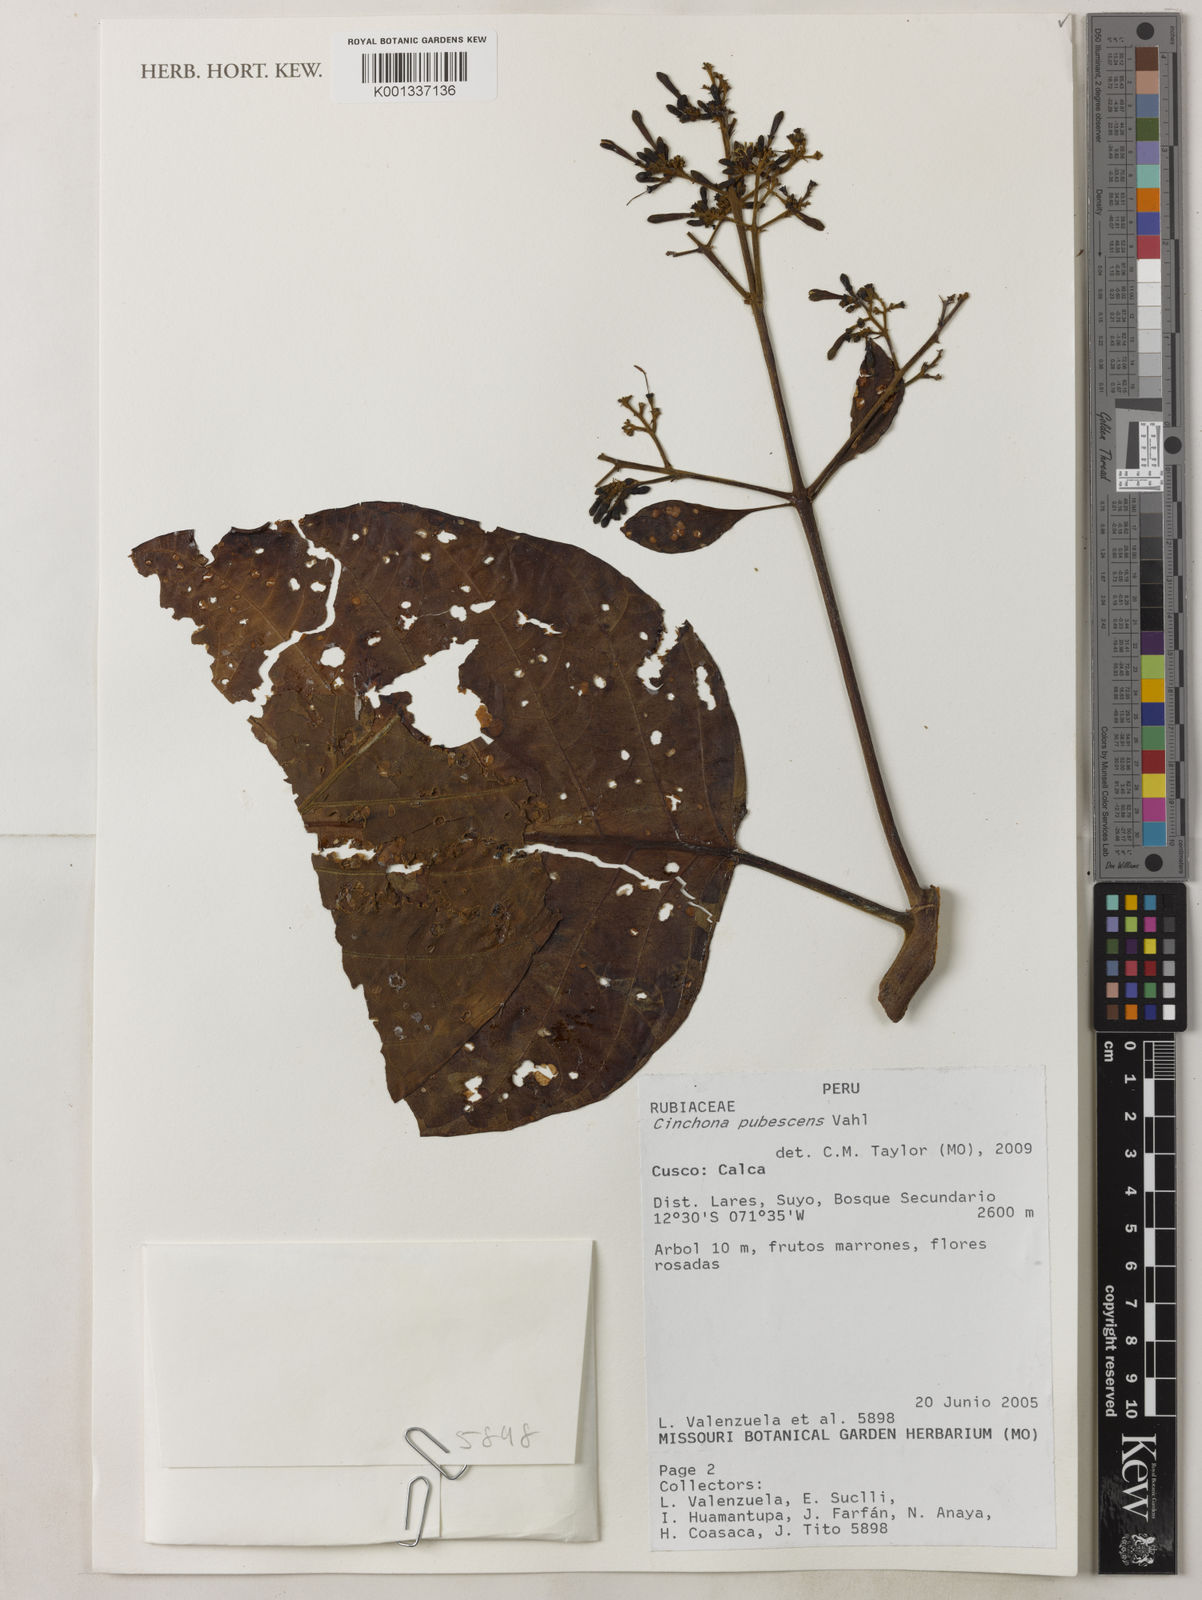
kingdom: Plantae
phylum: Tracheophyta
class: Magnoliopsida
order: Gentianales
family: Rubiaceae
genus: Cinchona
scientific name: Cinchona pubescens
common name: Quinine
